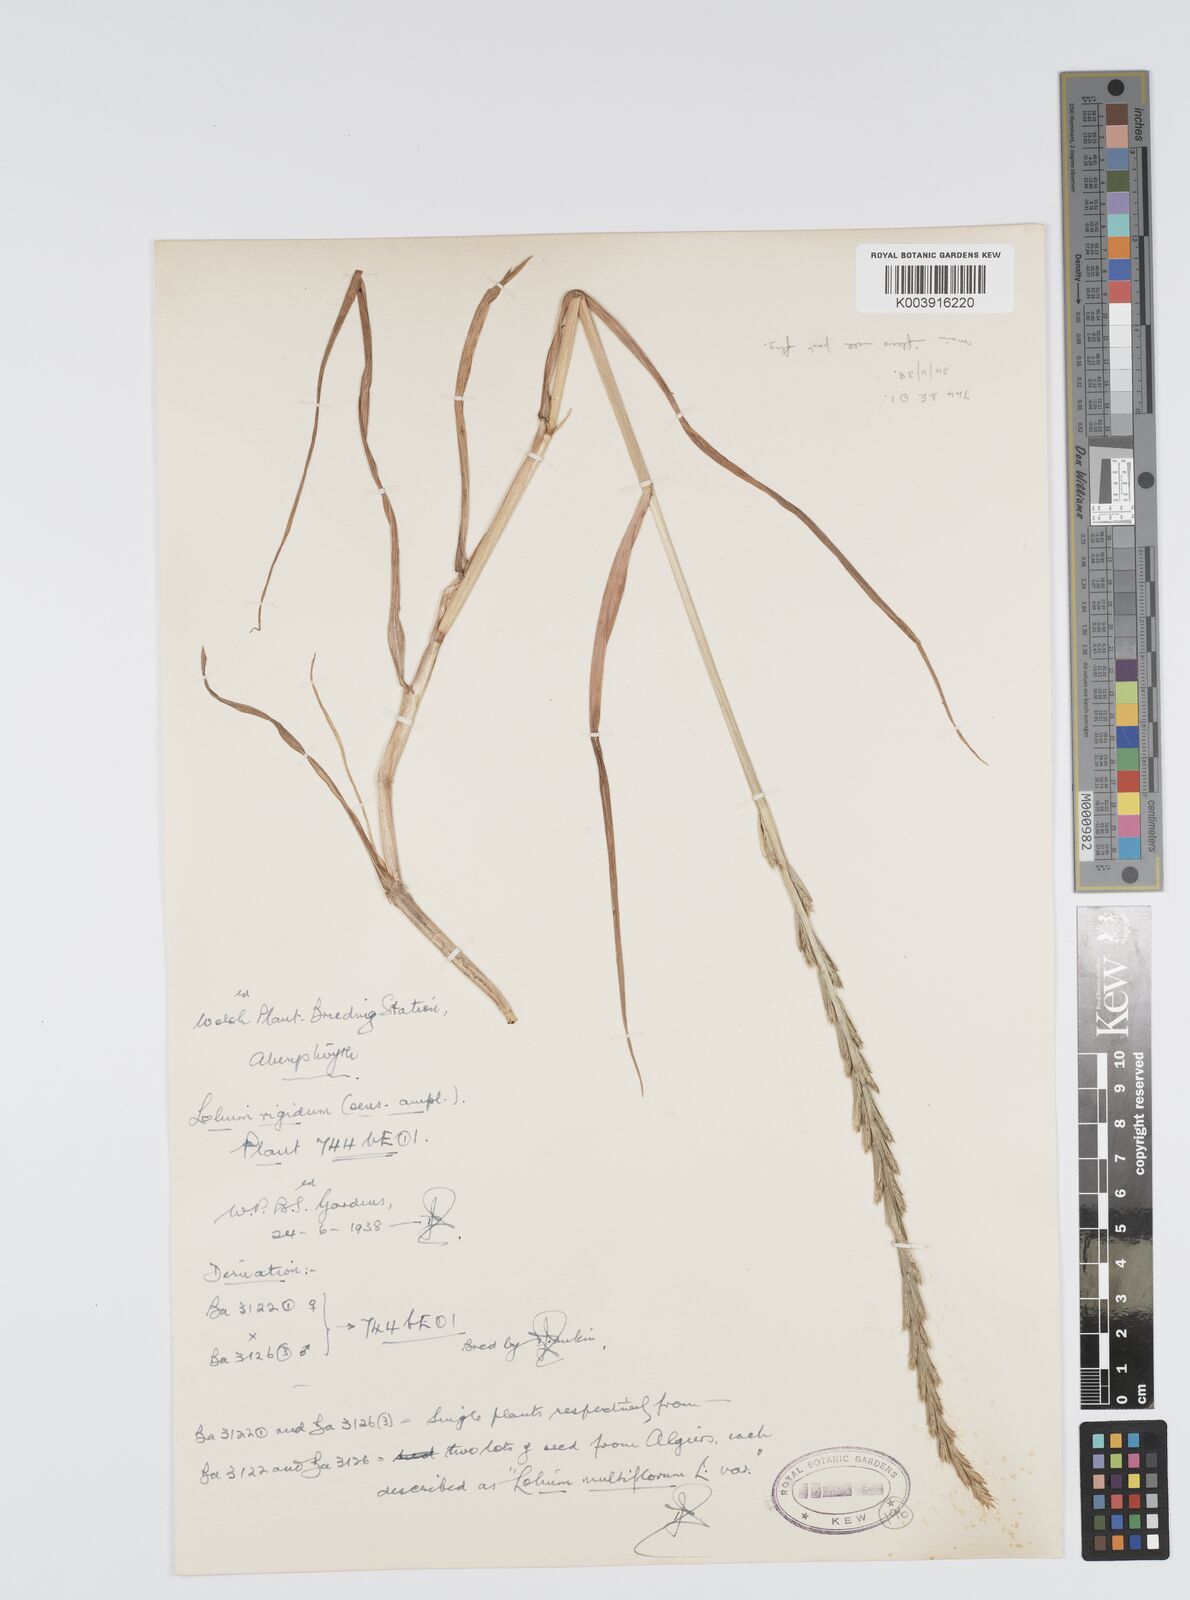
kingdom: Plantae
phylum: Tracheophyta
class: Liliopsida
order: Poales
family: Poaceae
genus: Lolium
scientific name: Lolium rigidum
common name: Wimmera ryegrass
